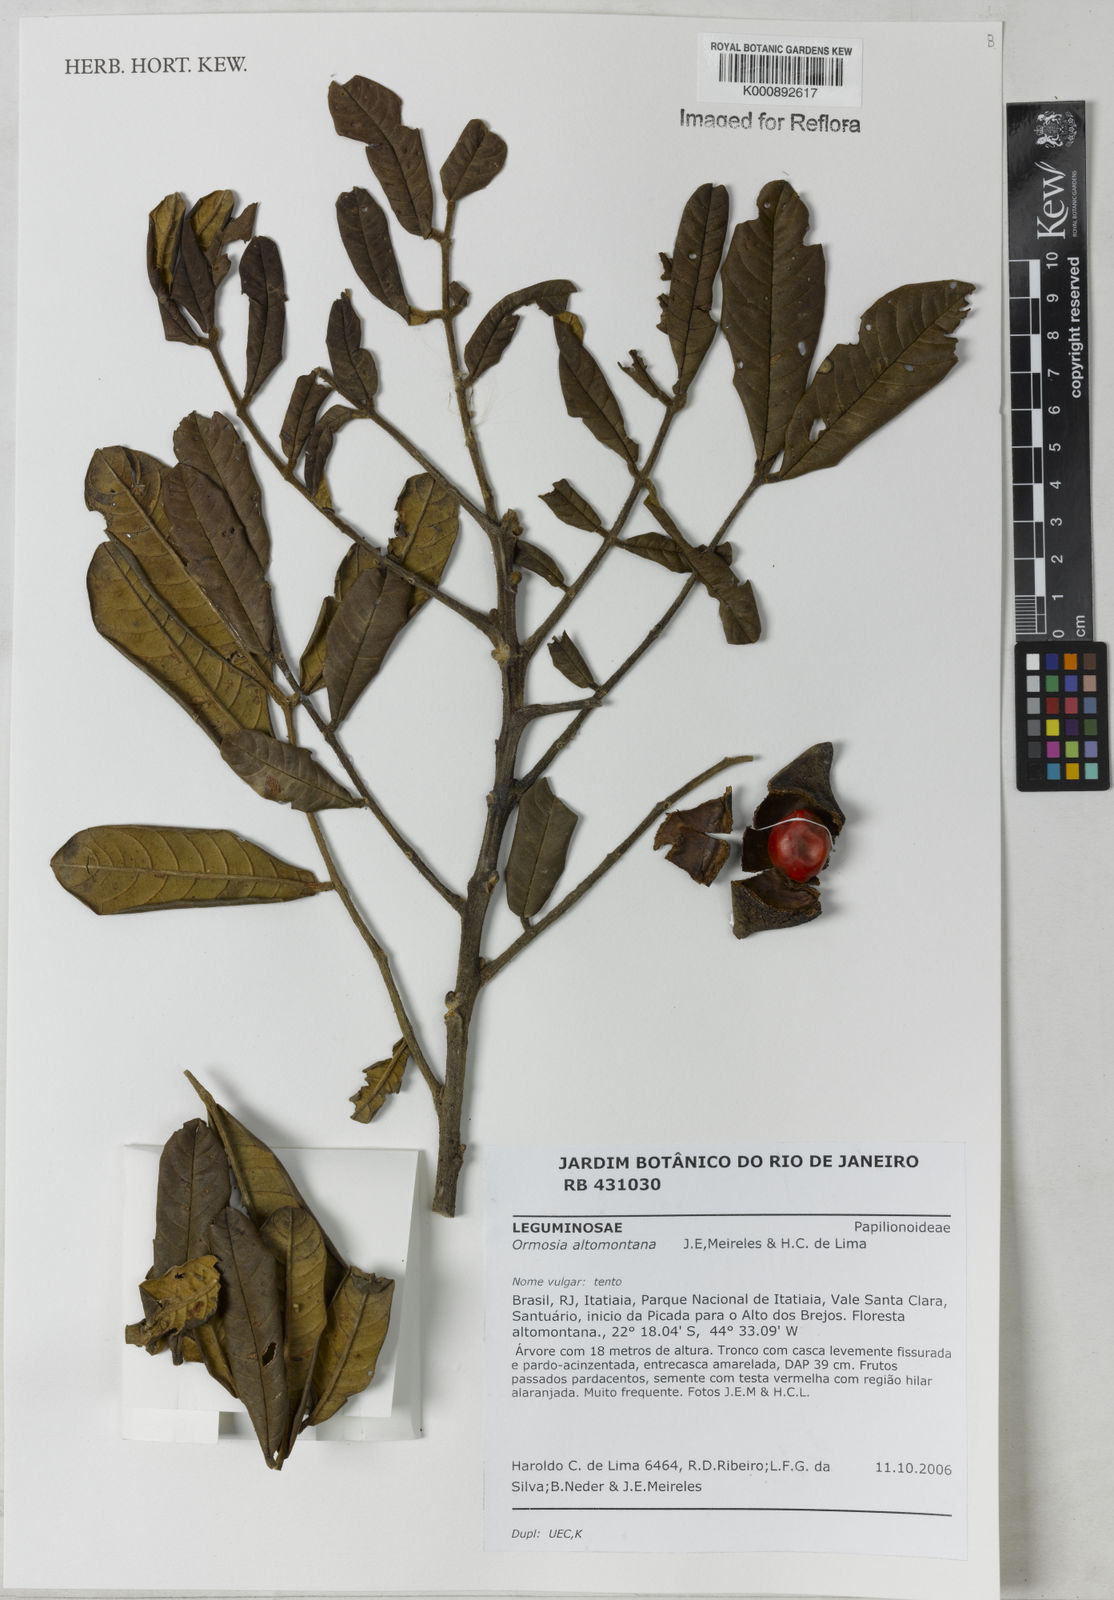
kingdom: Plantae
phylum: Tracheophyta
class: Magnoliopsida
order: Fabales
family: Fabaceae
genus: Ormosia
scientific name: Ormosia altimontana
